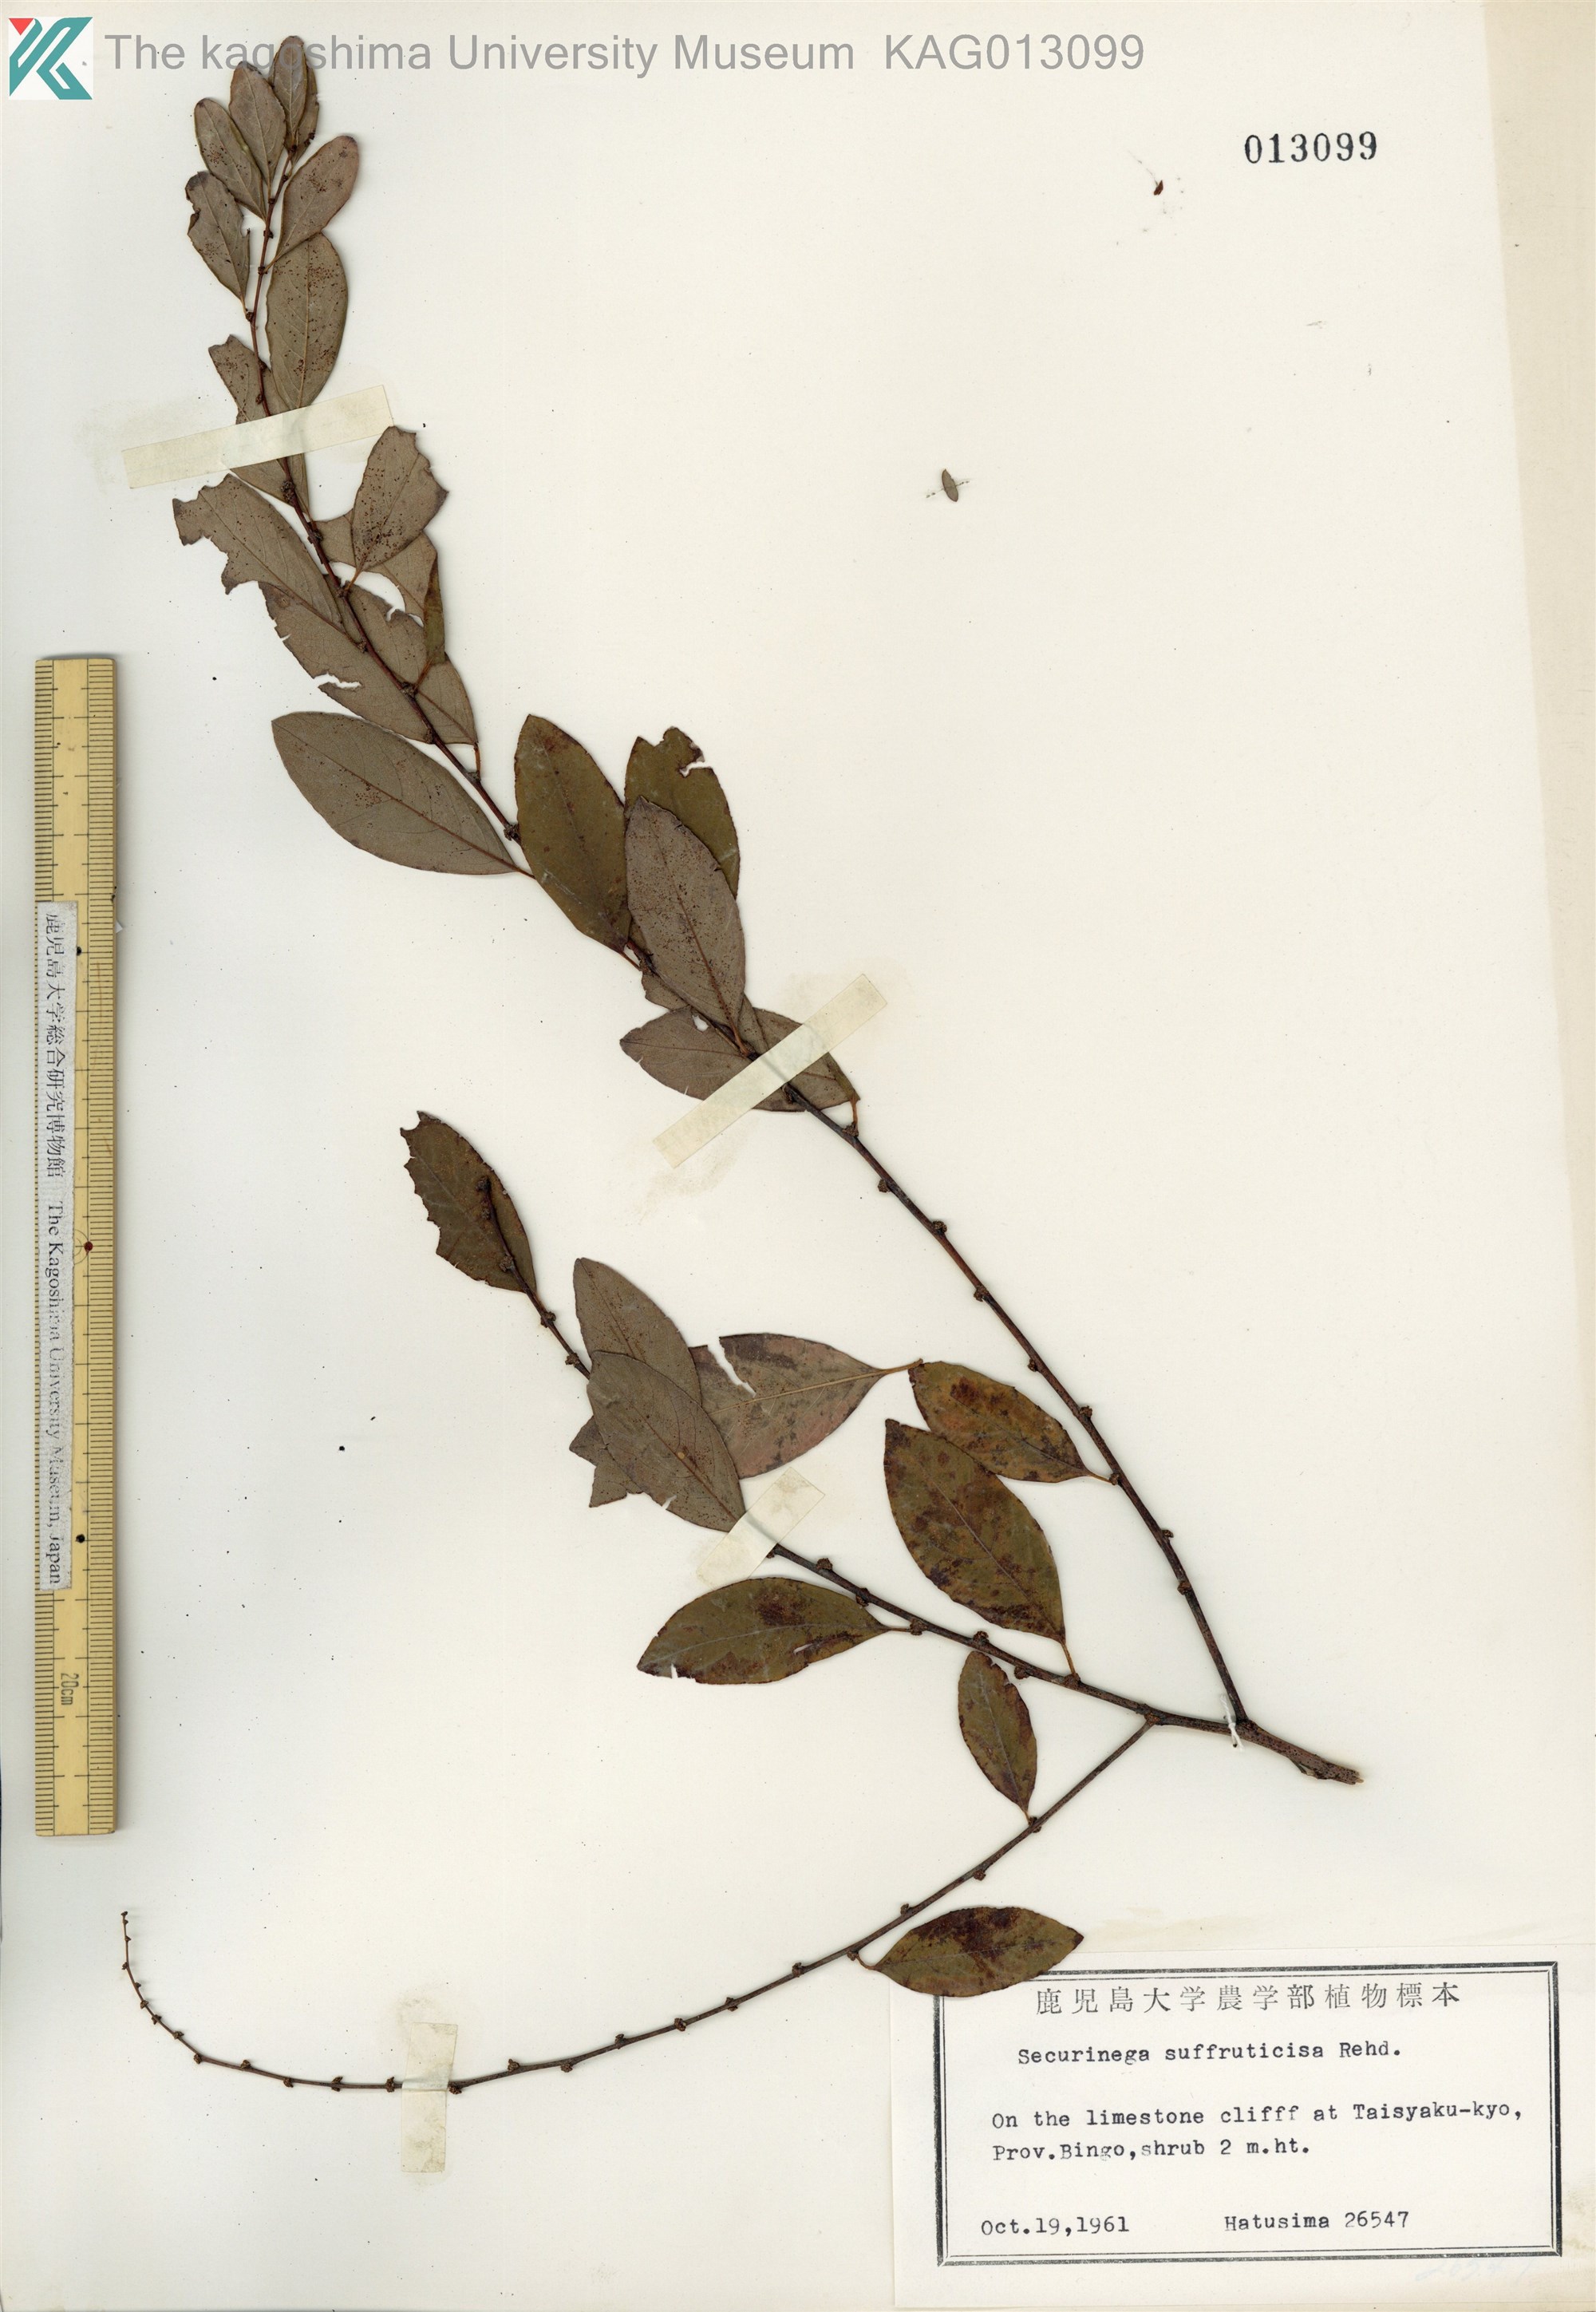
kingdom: Plantae
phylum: Tracheophyta
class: Magnoliopsida
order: Malpighiales
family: Phyllanthaceae
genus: Flueggea
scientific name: Flueggea suffruticosa
